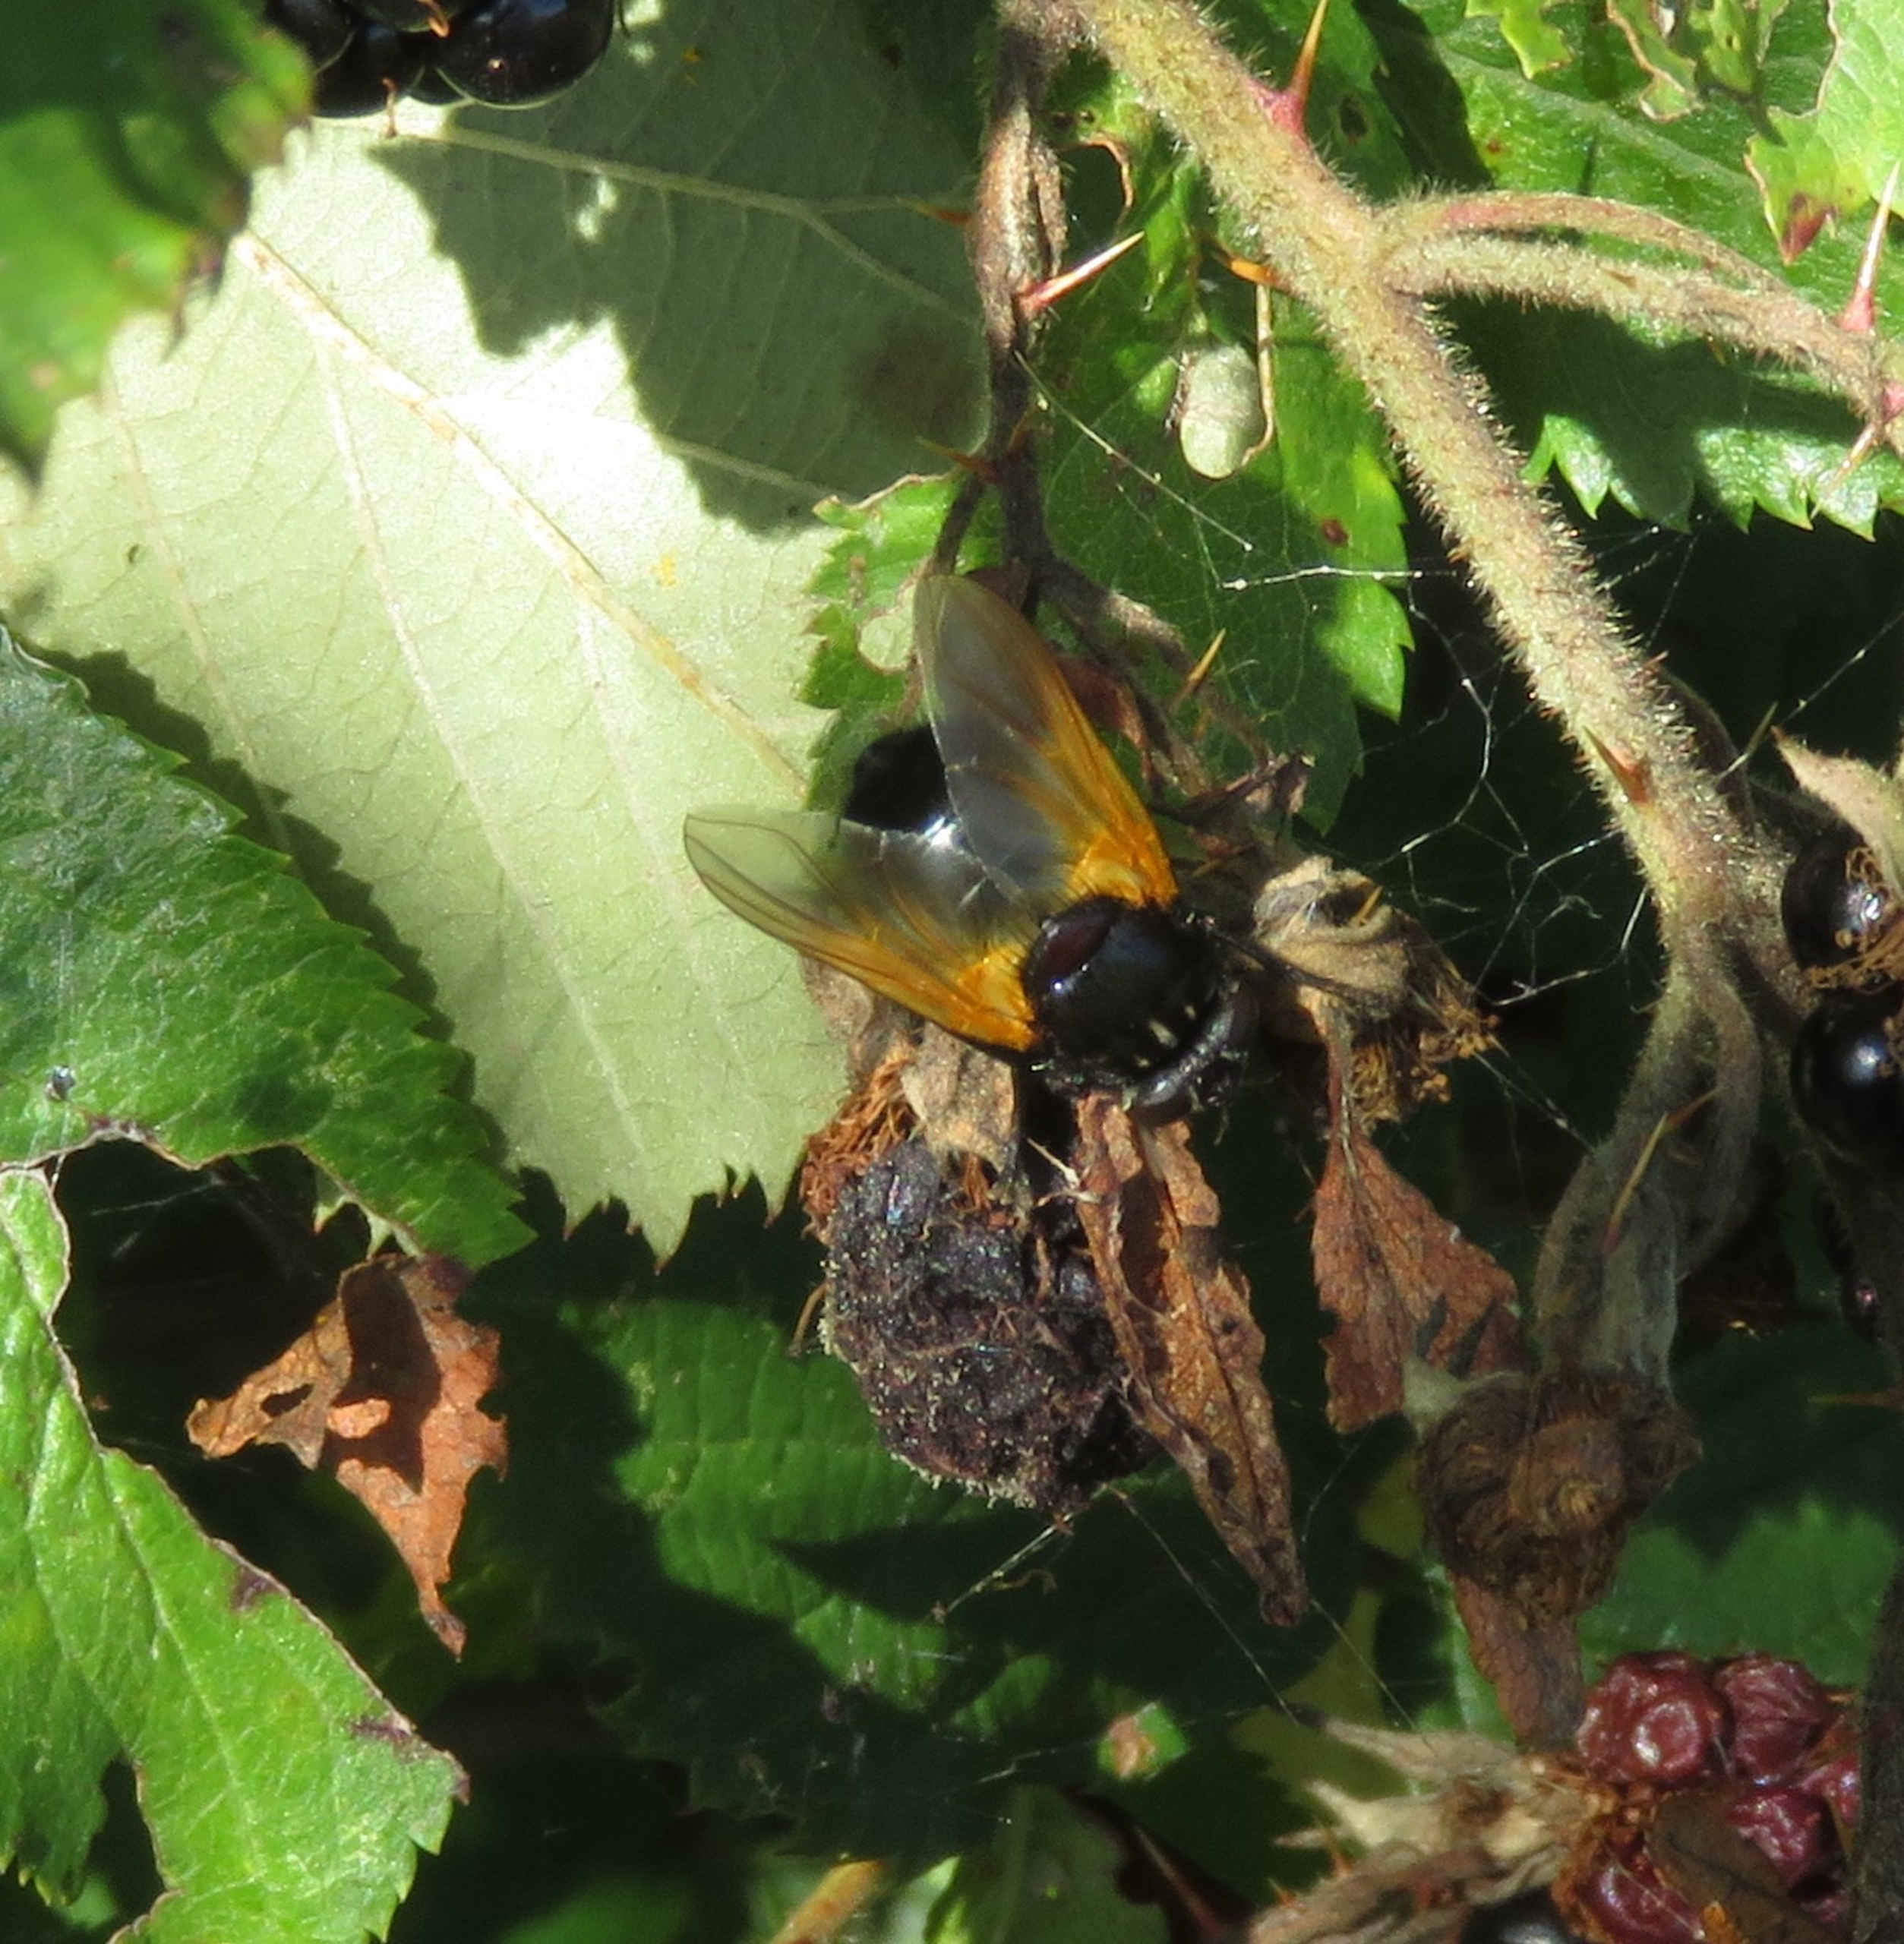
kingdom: Animalia
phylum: Arthropoda
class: Insecta
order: Diptera
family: Muscidae
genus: Mesembrina
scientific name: Mesembrina meridiana
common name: Gulvinget flue
